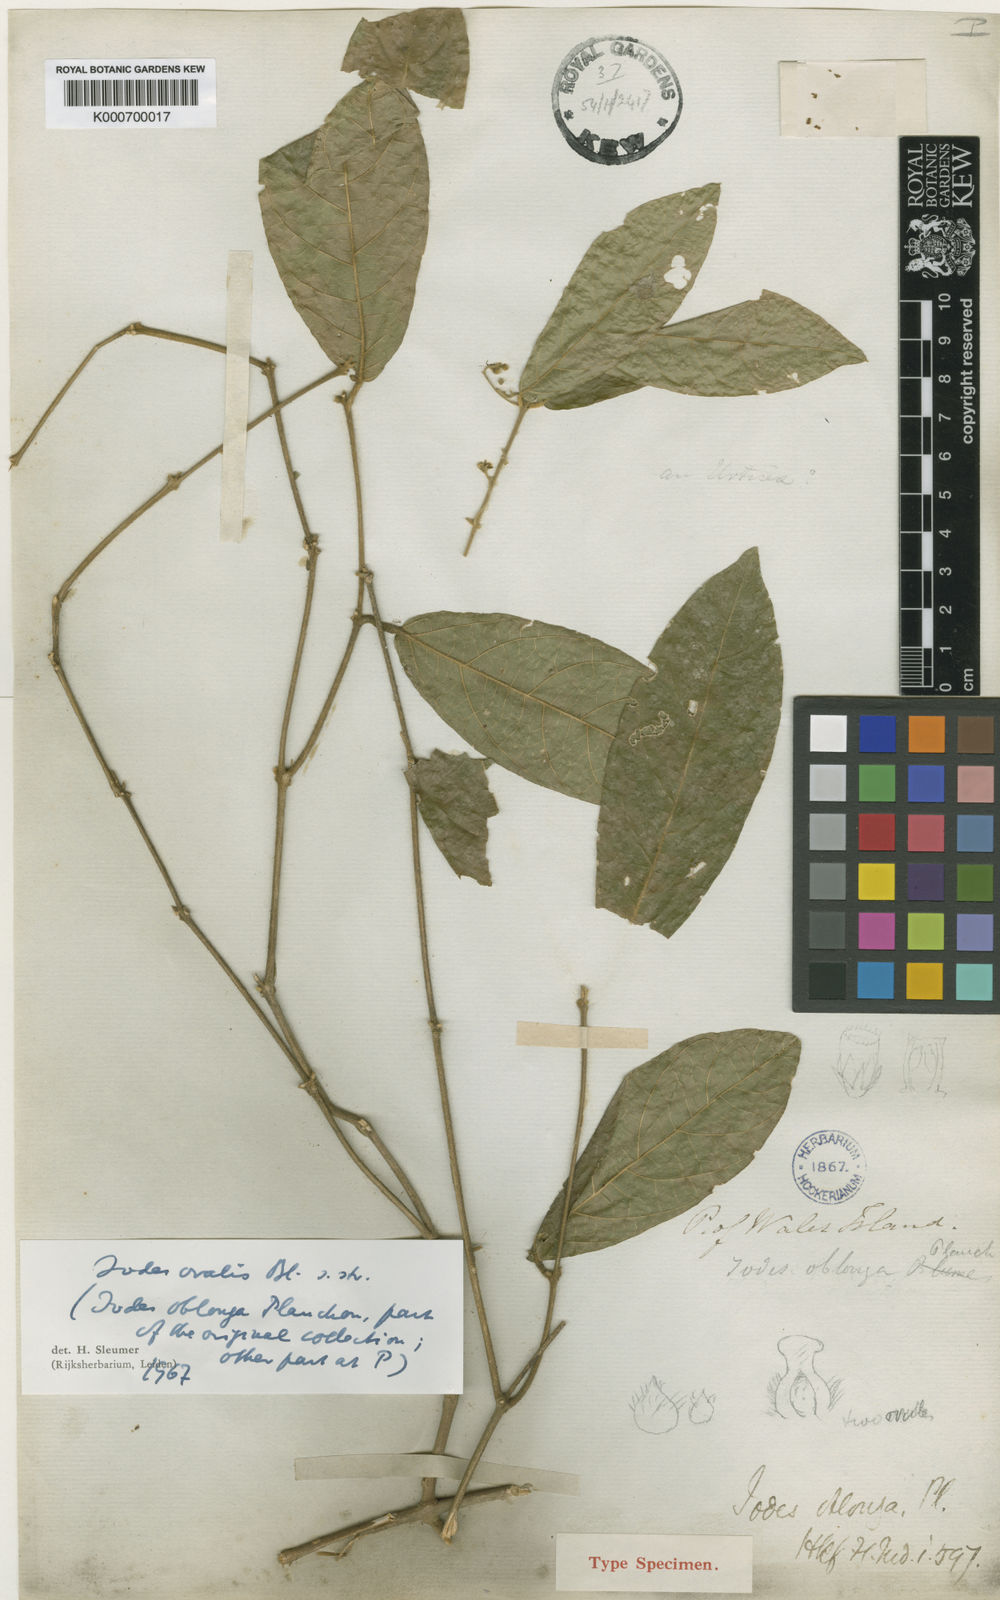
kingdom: Plantae
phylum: Tracheophyta
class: Magnoliopsida
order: Icacinales
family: Icacinaceae
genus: Iodes
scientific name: Iodes ovalis
